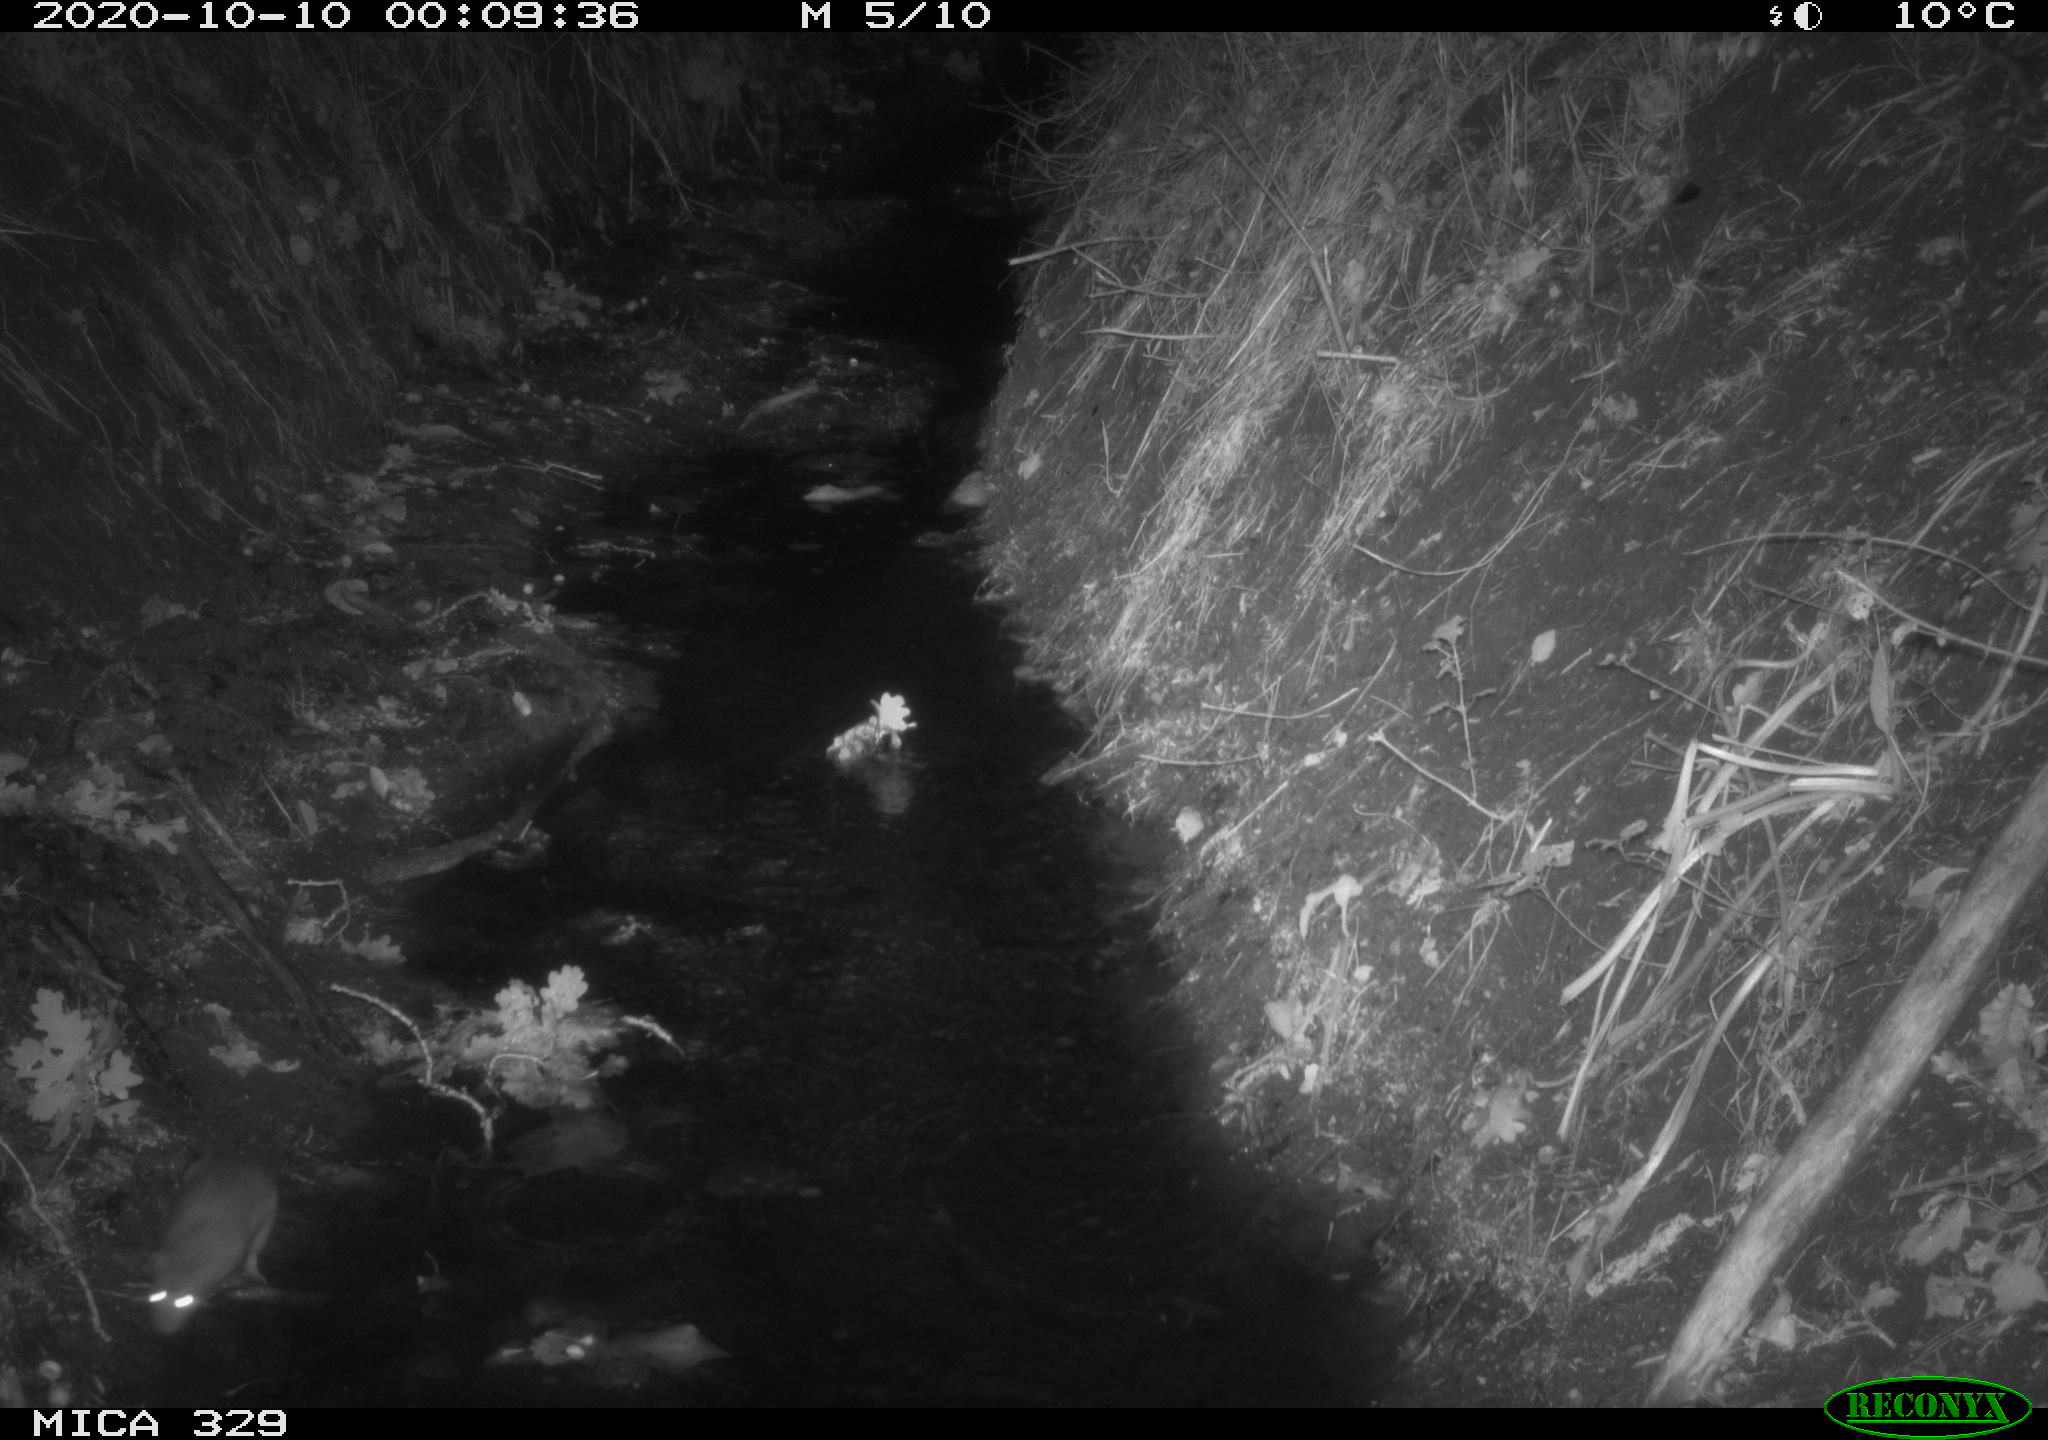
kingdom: Animalia
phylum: Chordata
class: Mammalia
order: Rodentia
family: Muridae
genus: Rattus
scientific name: Rattus norvegicus
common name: Brown rat
